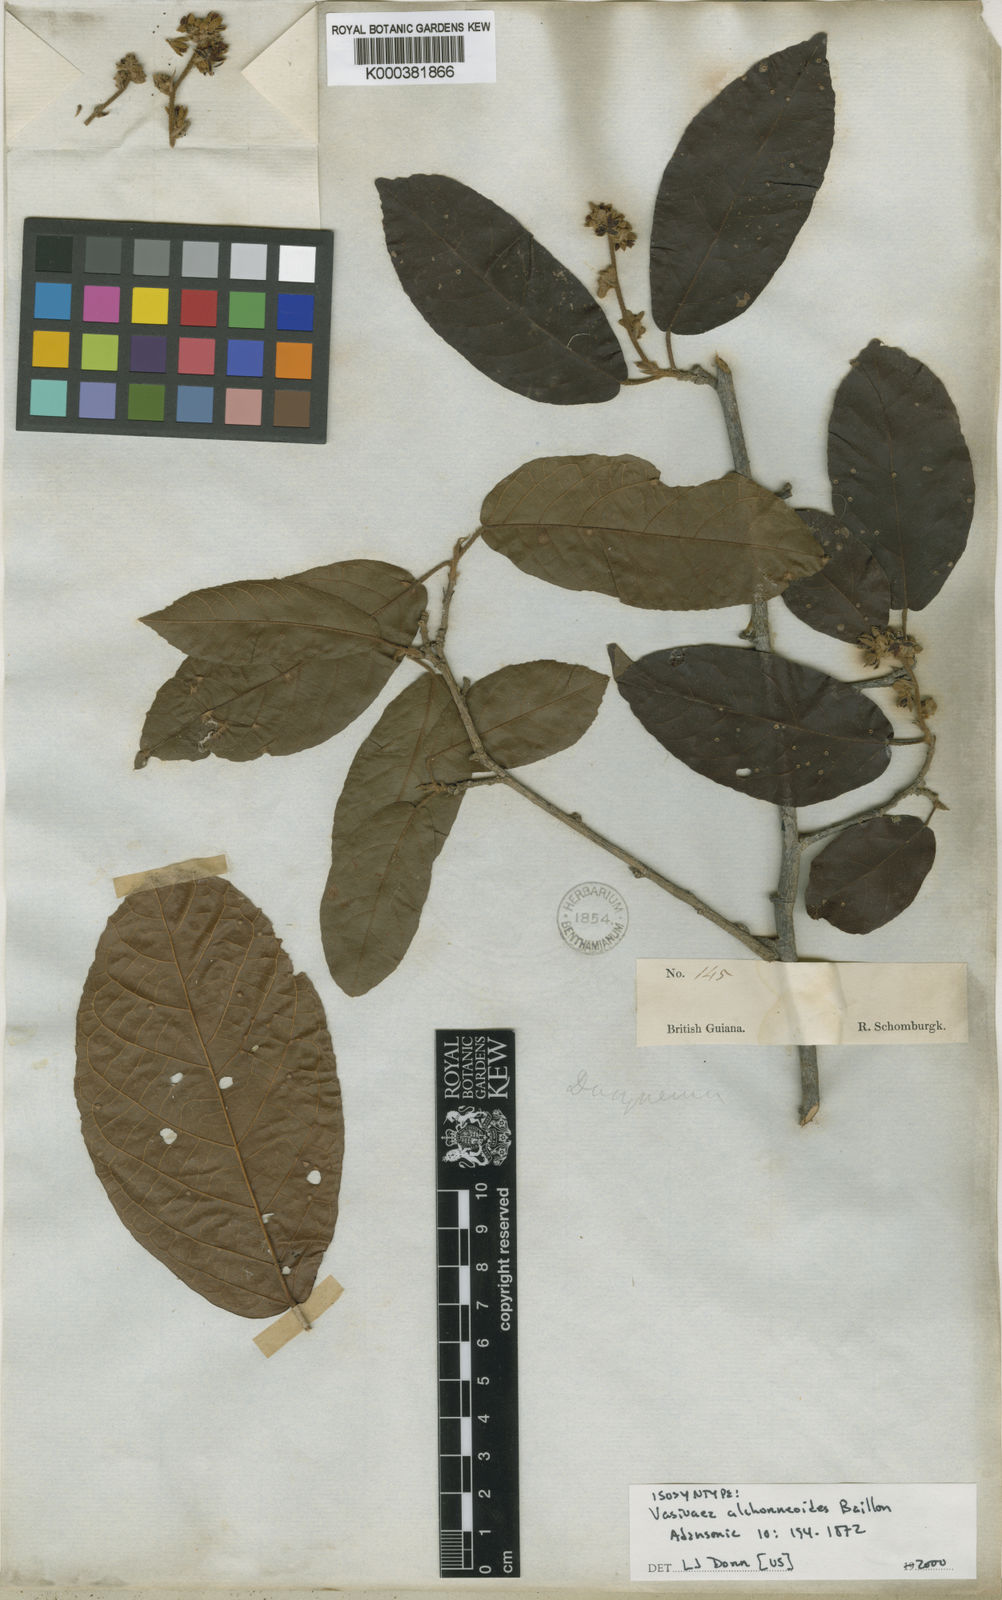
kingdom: Plantae
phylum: Tracheophyta
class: Magnoliopsida
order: Malvales
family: Malvaceae
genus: Vasivaea
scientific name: Vasivaea alchorneoides
